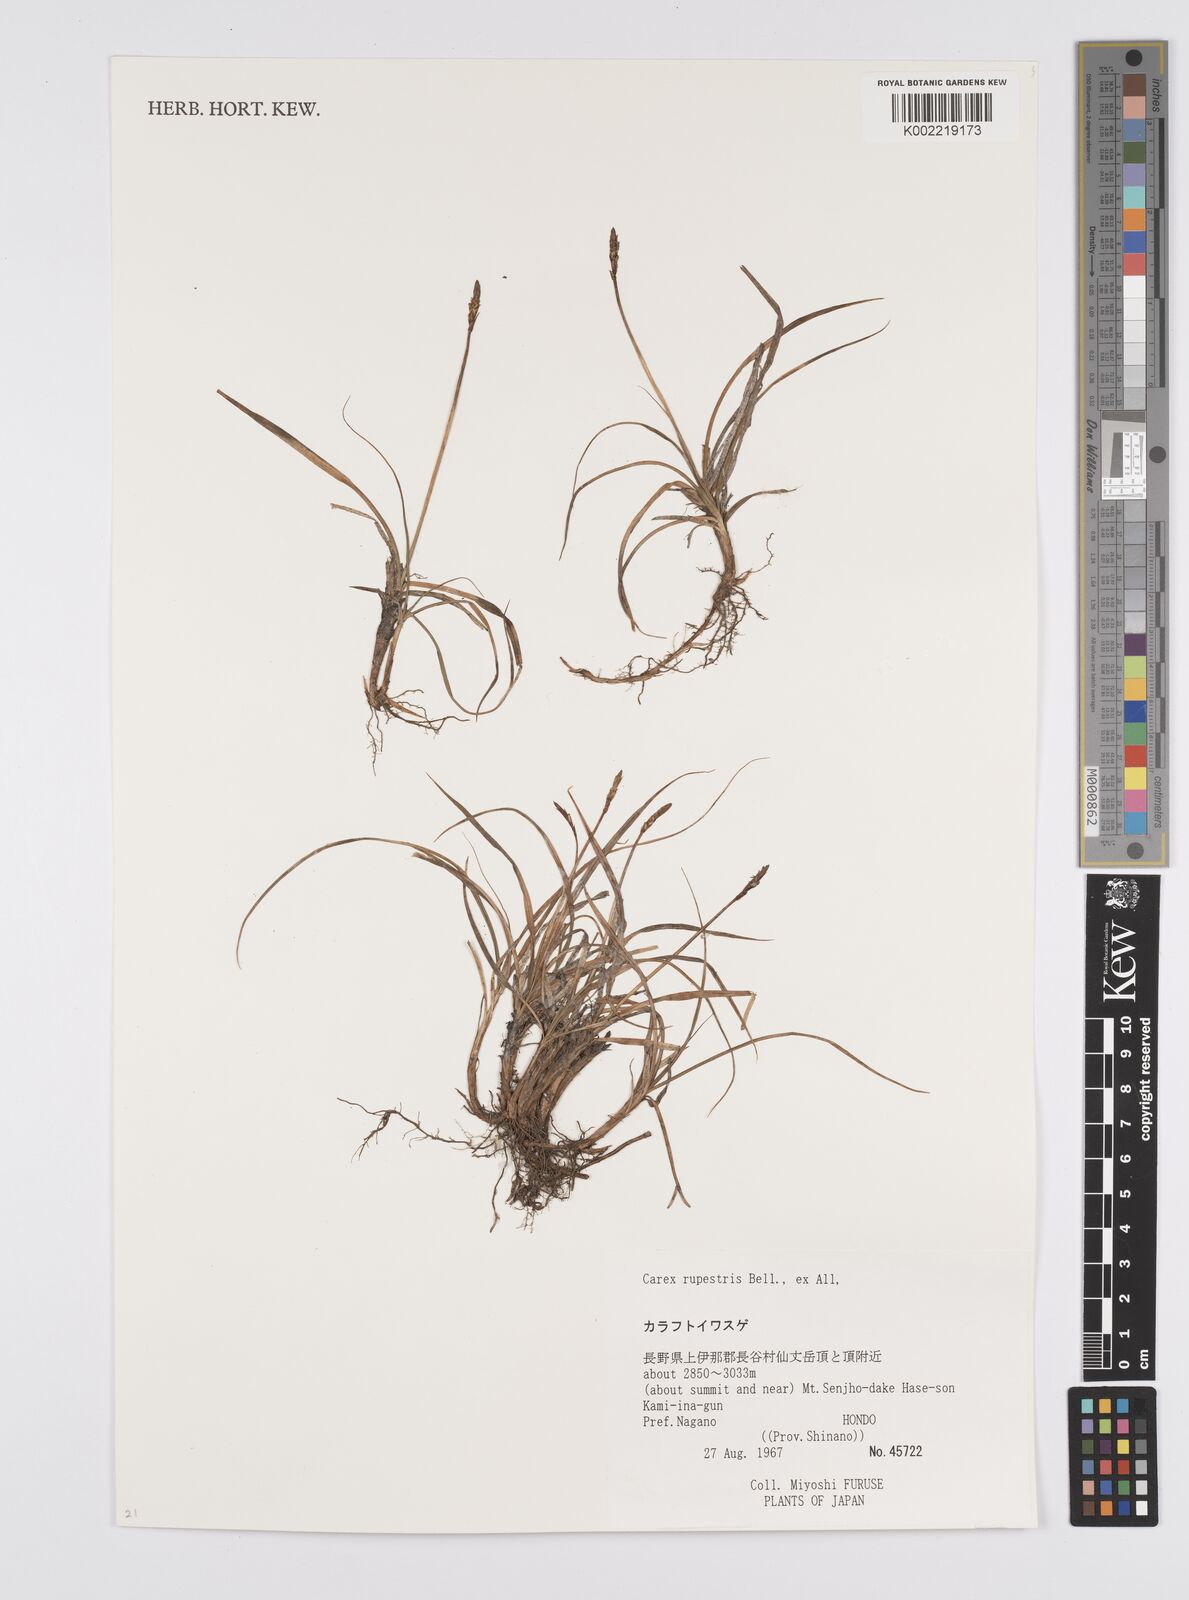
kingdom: Plantae
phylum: Tracheophyta
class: Liliopsida
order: Poales
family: Cyperaceae
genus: Carex
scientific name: Carex rupestris
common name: Rock sedge
